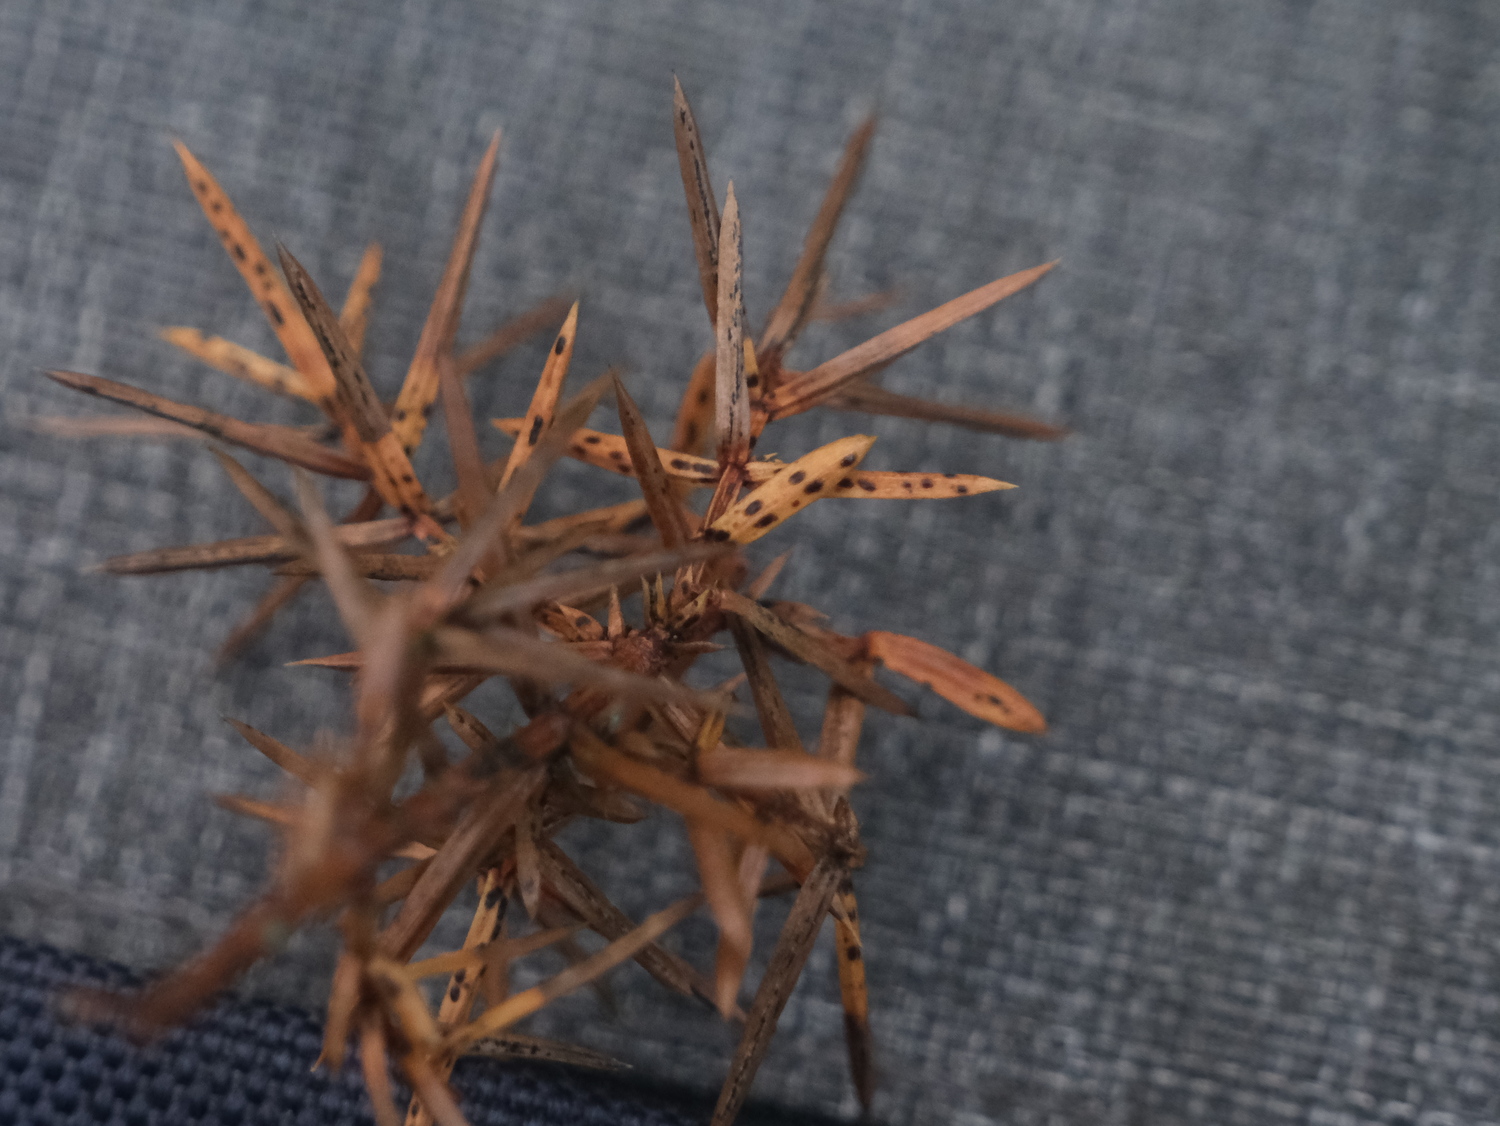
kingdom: Fungi
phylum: Ascomycota
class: Leotiomycetes
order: Rhytismatales
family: Rhytismataceae
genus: Lophodermium
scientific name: Lophodermium juniperinum
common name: ene-fureplet
